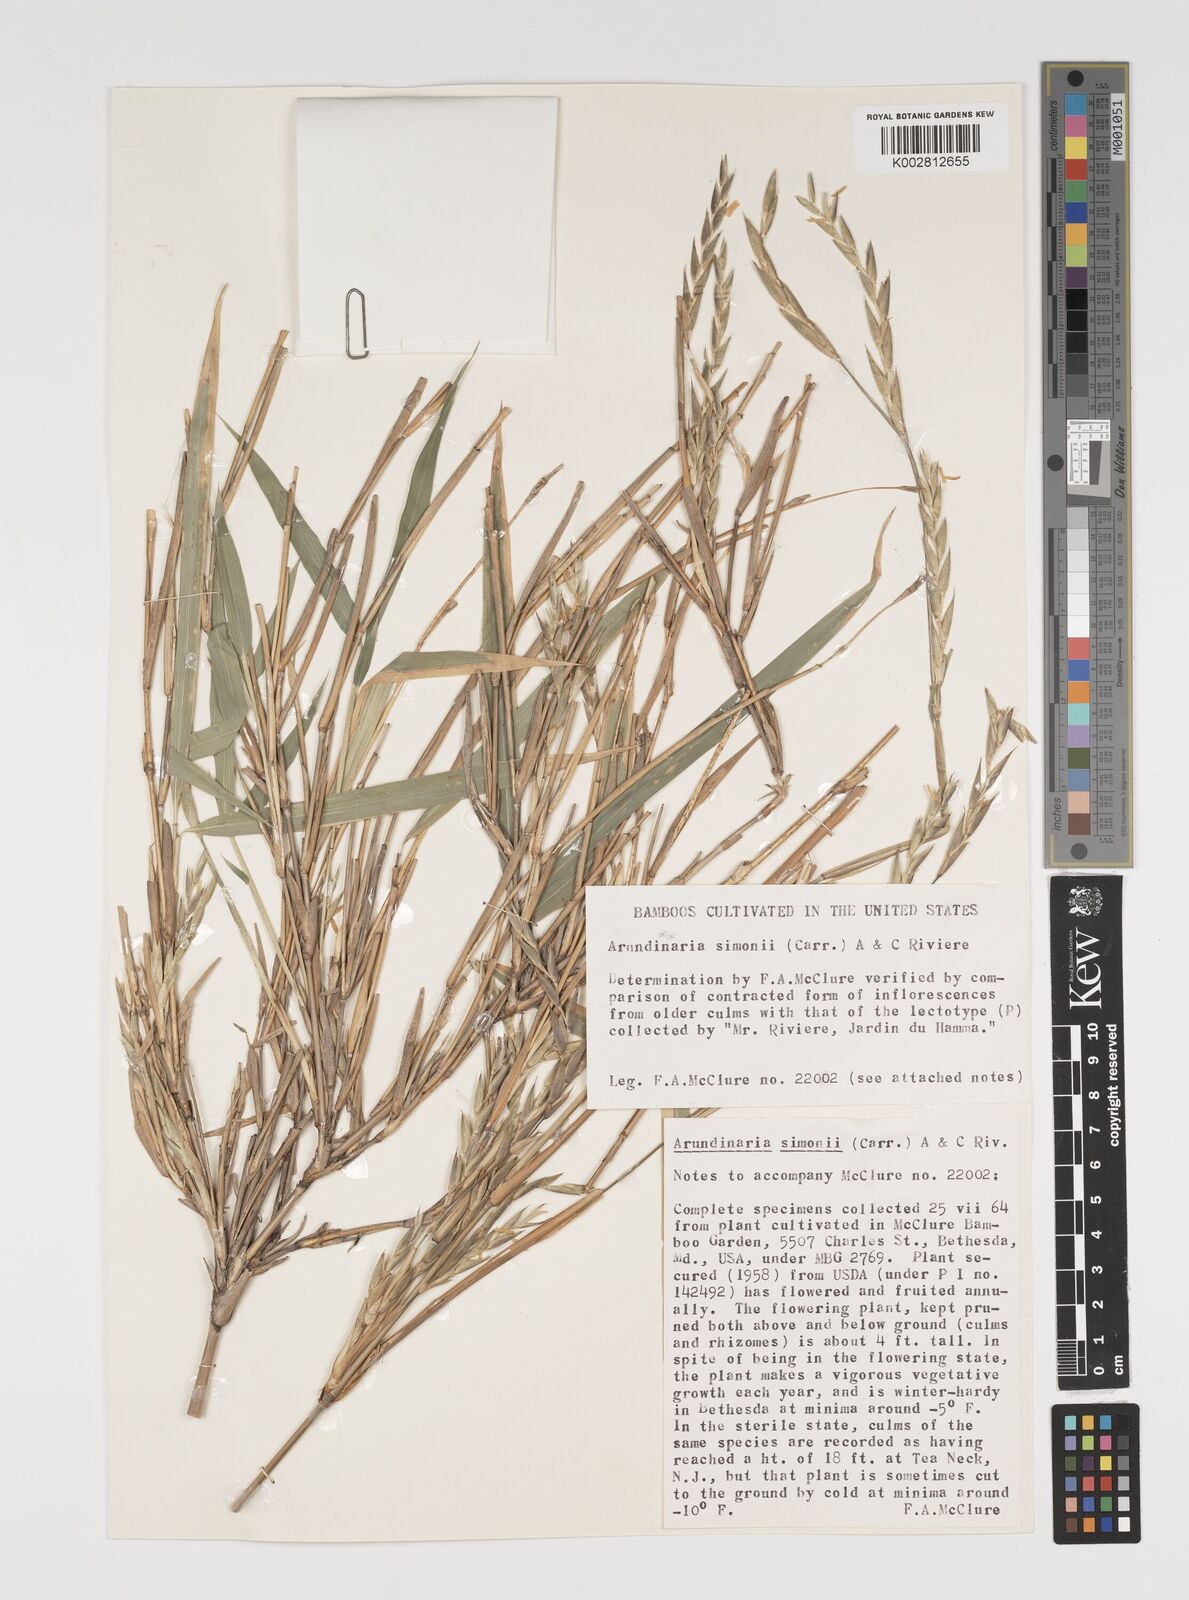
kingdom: Plantae
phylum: Tracheophyta
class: Liliopsida
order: Poales
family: Poaceae
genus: Pleioblastus
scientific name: Pleioblastus simonii
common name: Simon bamboo
